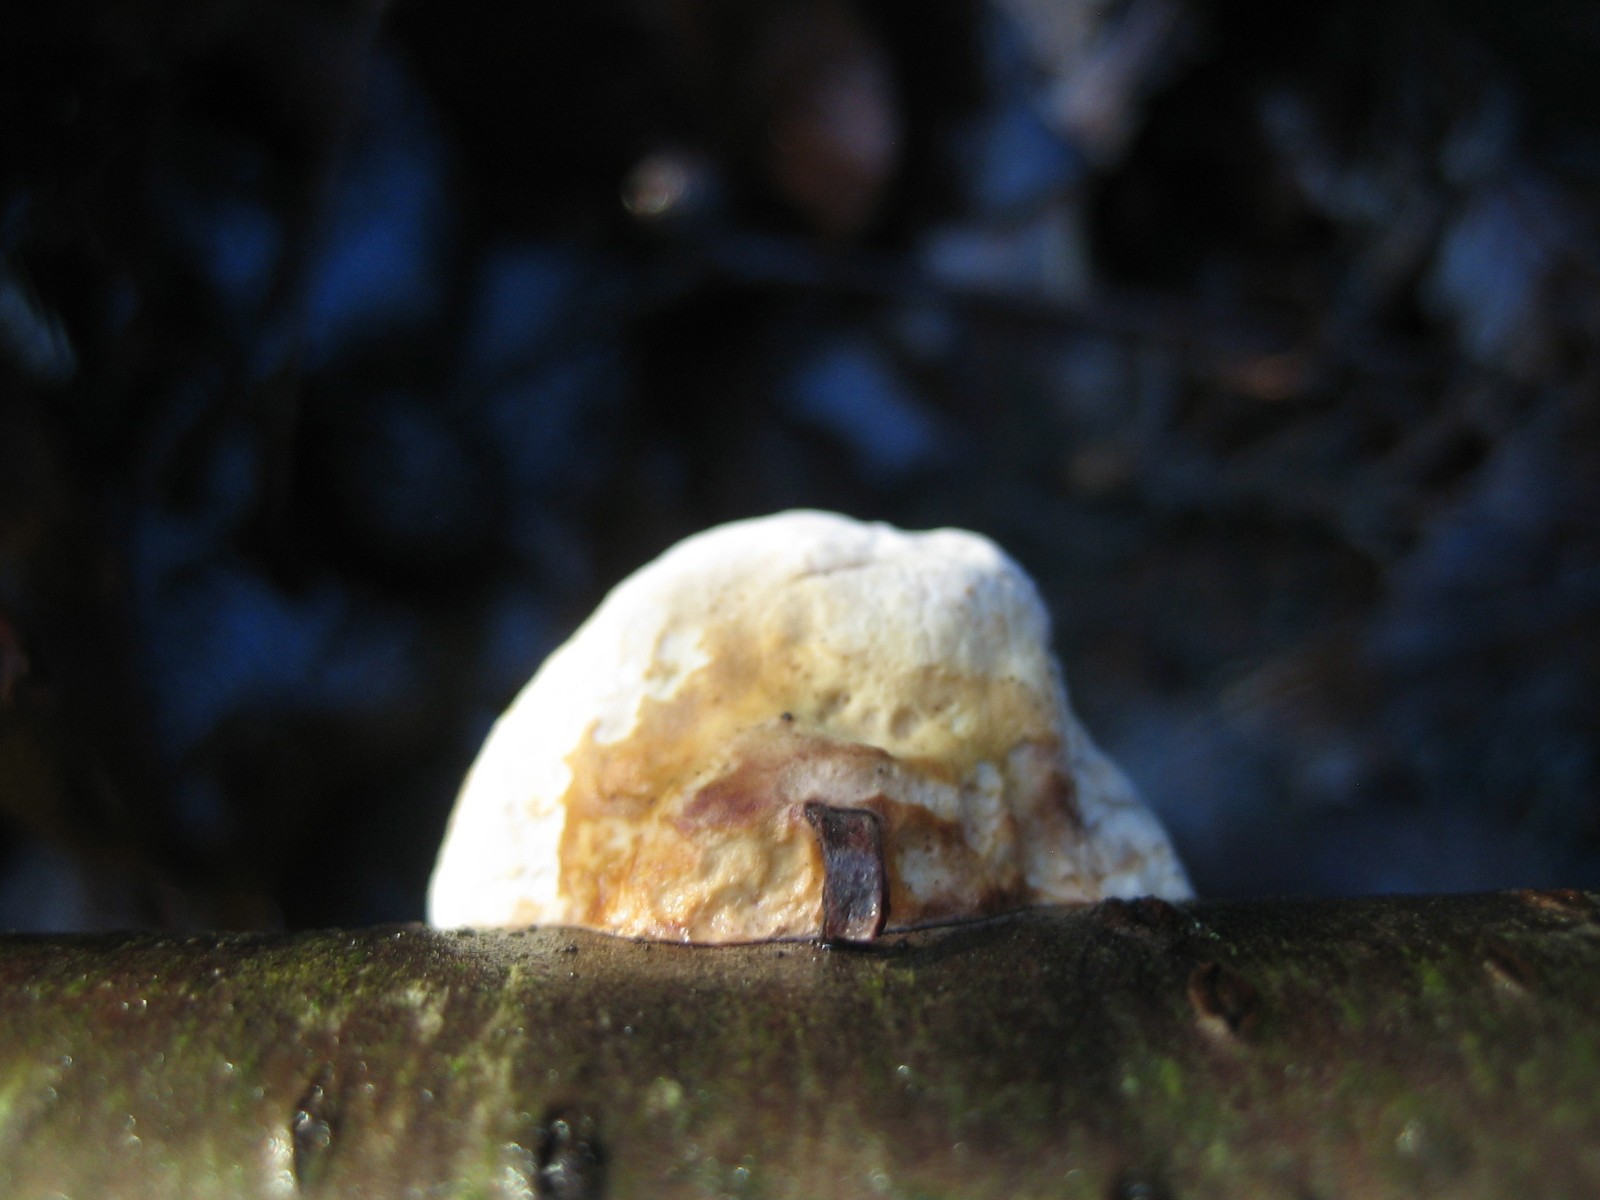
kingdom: Fungi
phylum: Basidiomycota
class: Agaricomycetes
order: Polyporales
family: Fomitopsidaceae
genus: Fomitopsis
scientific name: Fomitopsis pinicola
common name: randbæltet hovporesvamp
